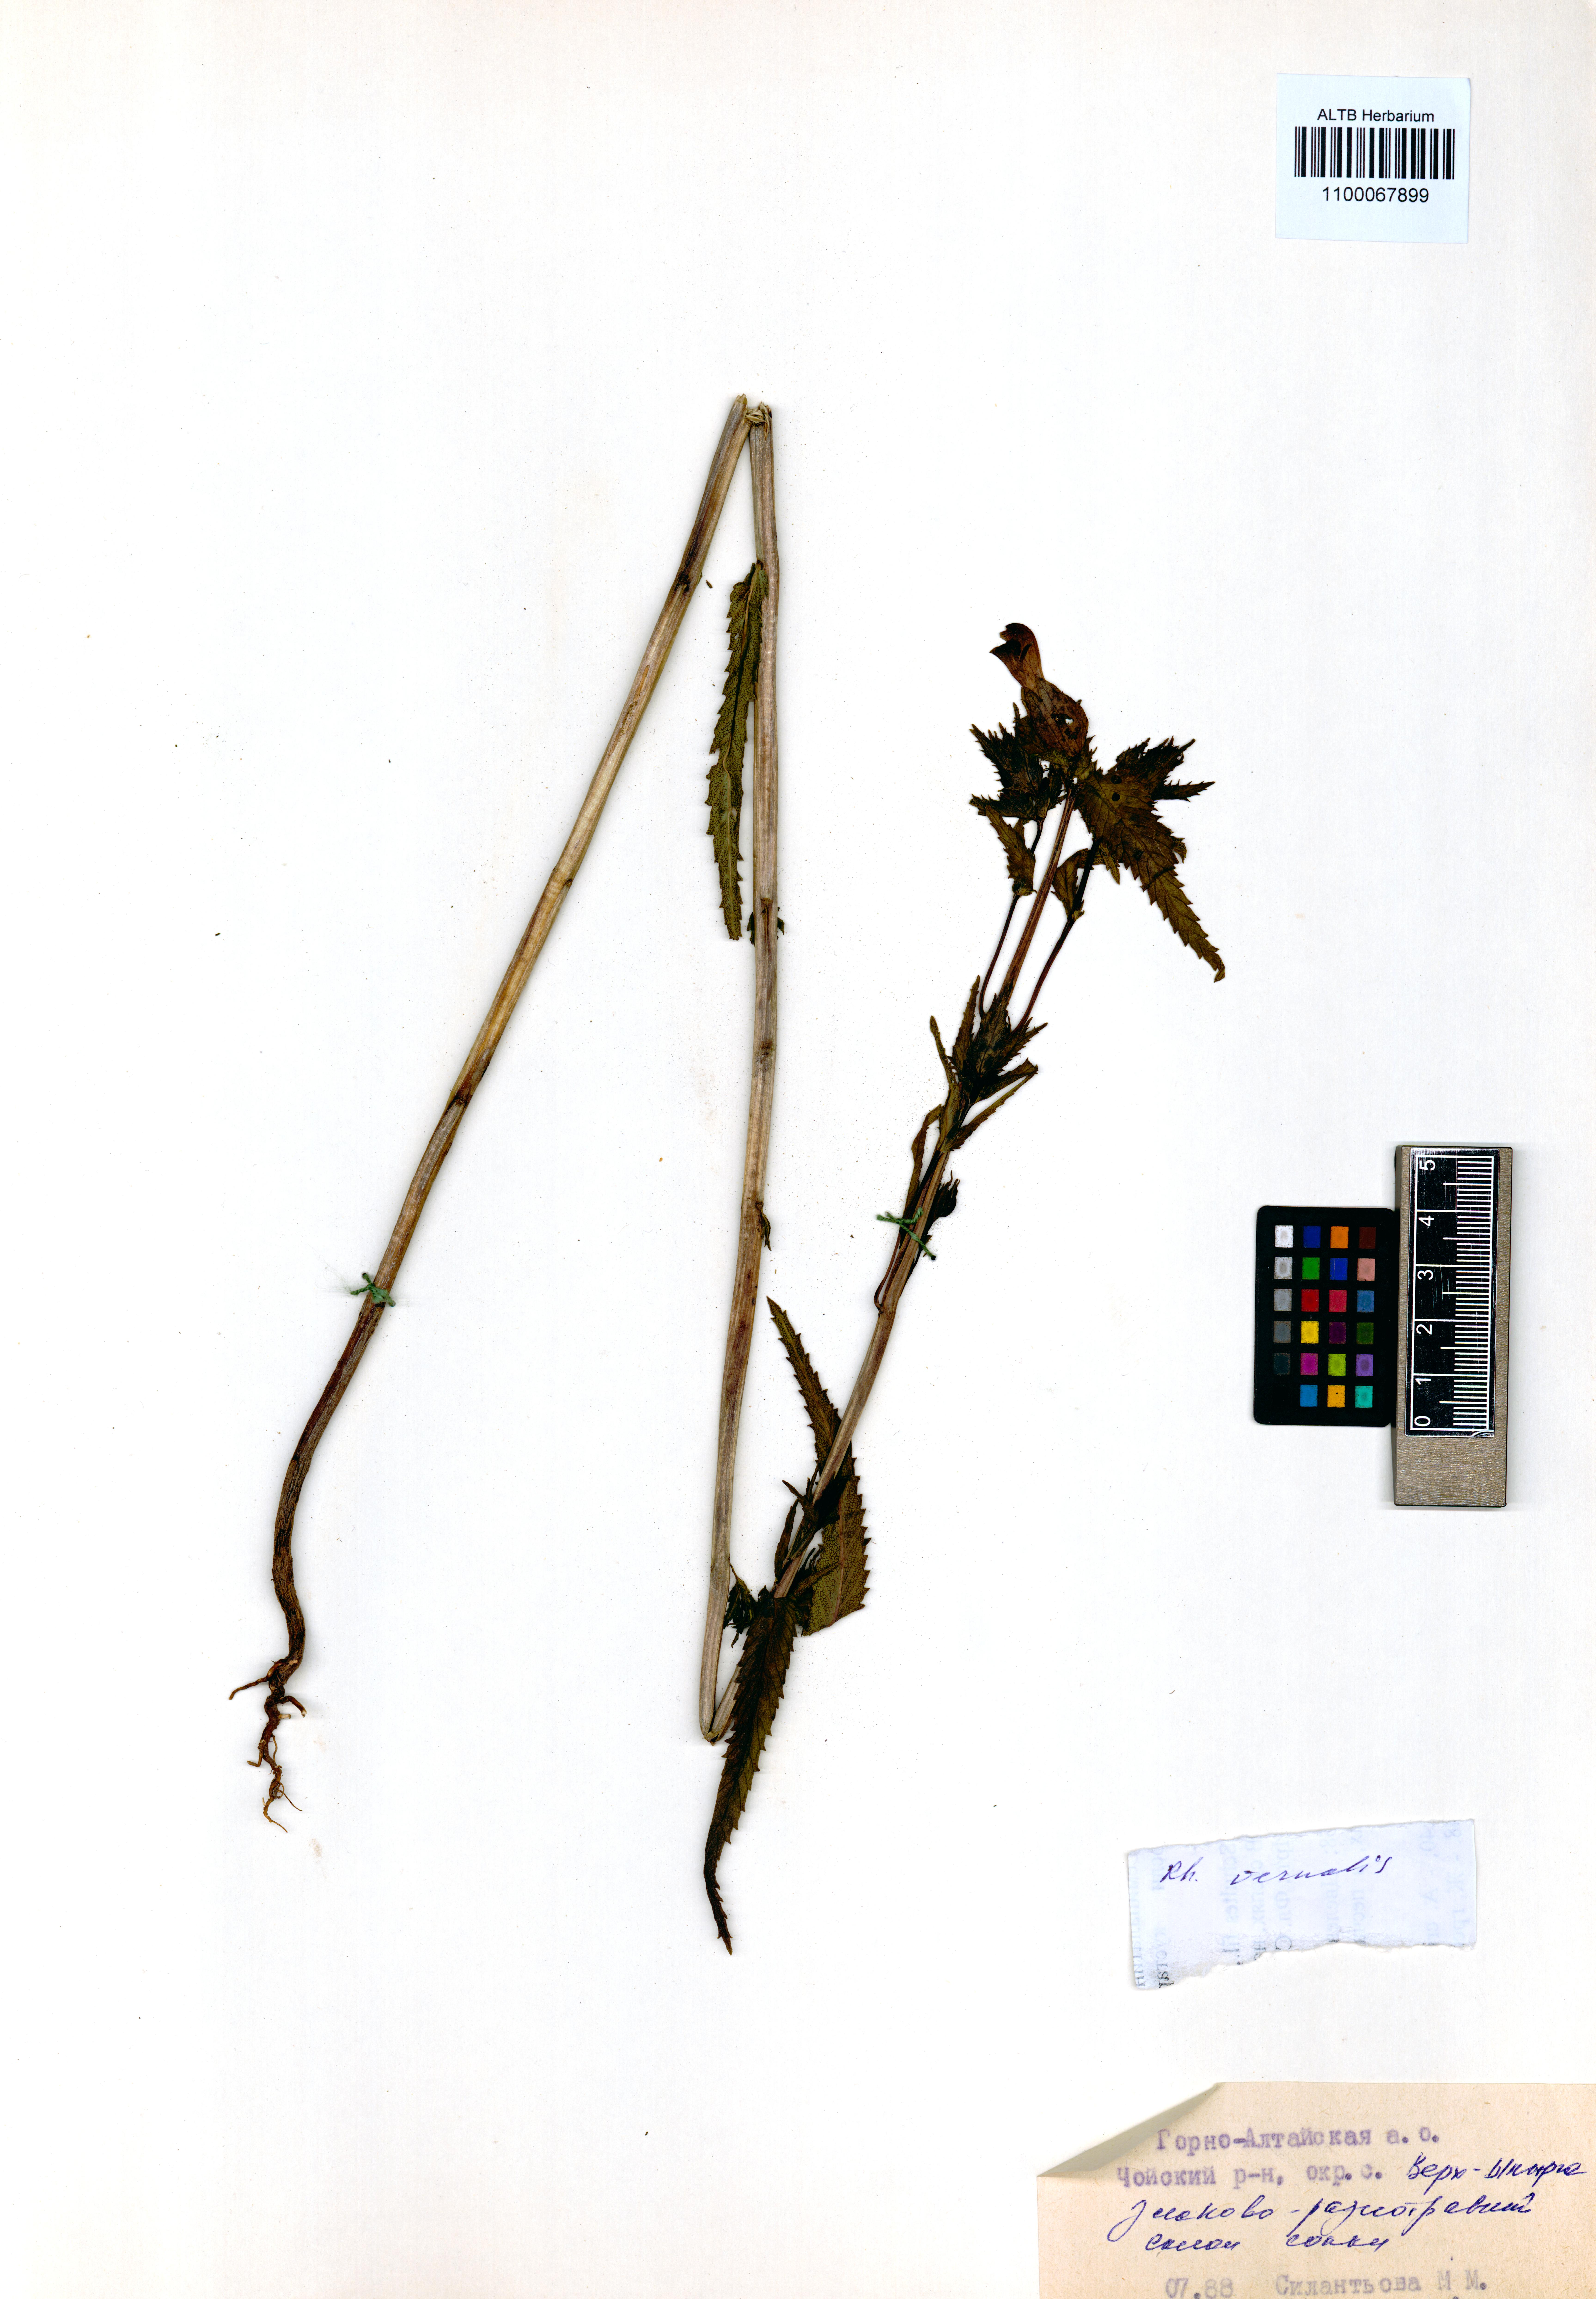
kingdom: Plantae
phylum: Tracheophyta
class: Magnoliopsida
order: Lamiales
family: Orobanchaceae
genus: Rhinanthus
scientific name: Rhinanthus serotinus
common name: Late-flowering yellow rattle
